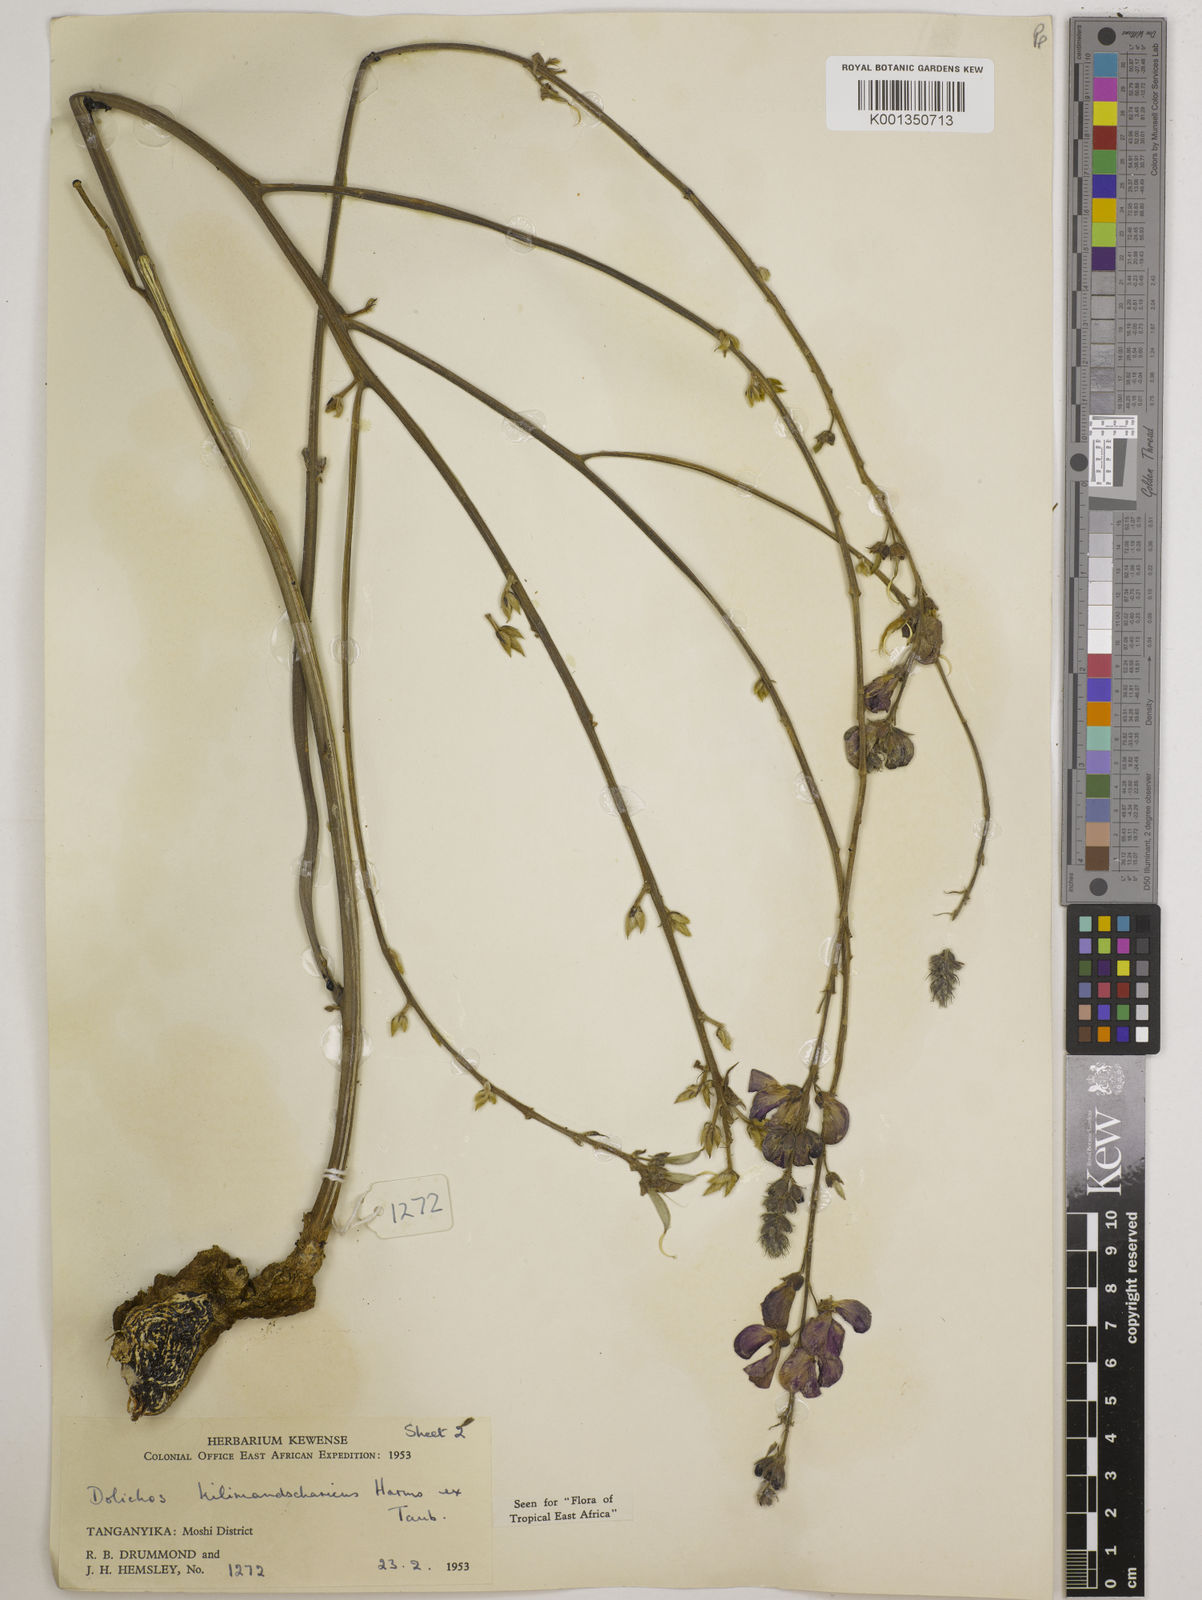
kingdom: Plantae
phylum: Tracheophyta
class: Magnoliopsida
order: Fabales
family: Fabaceae
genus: Dolichos
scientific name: Dolichos kilimandscharicus
